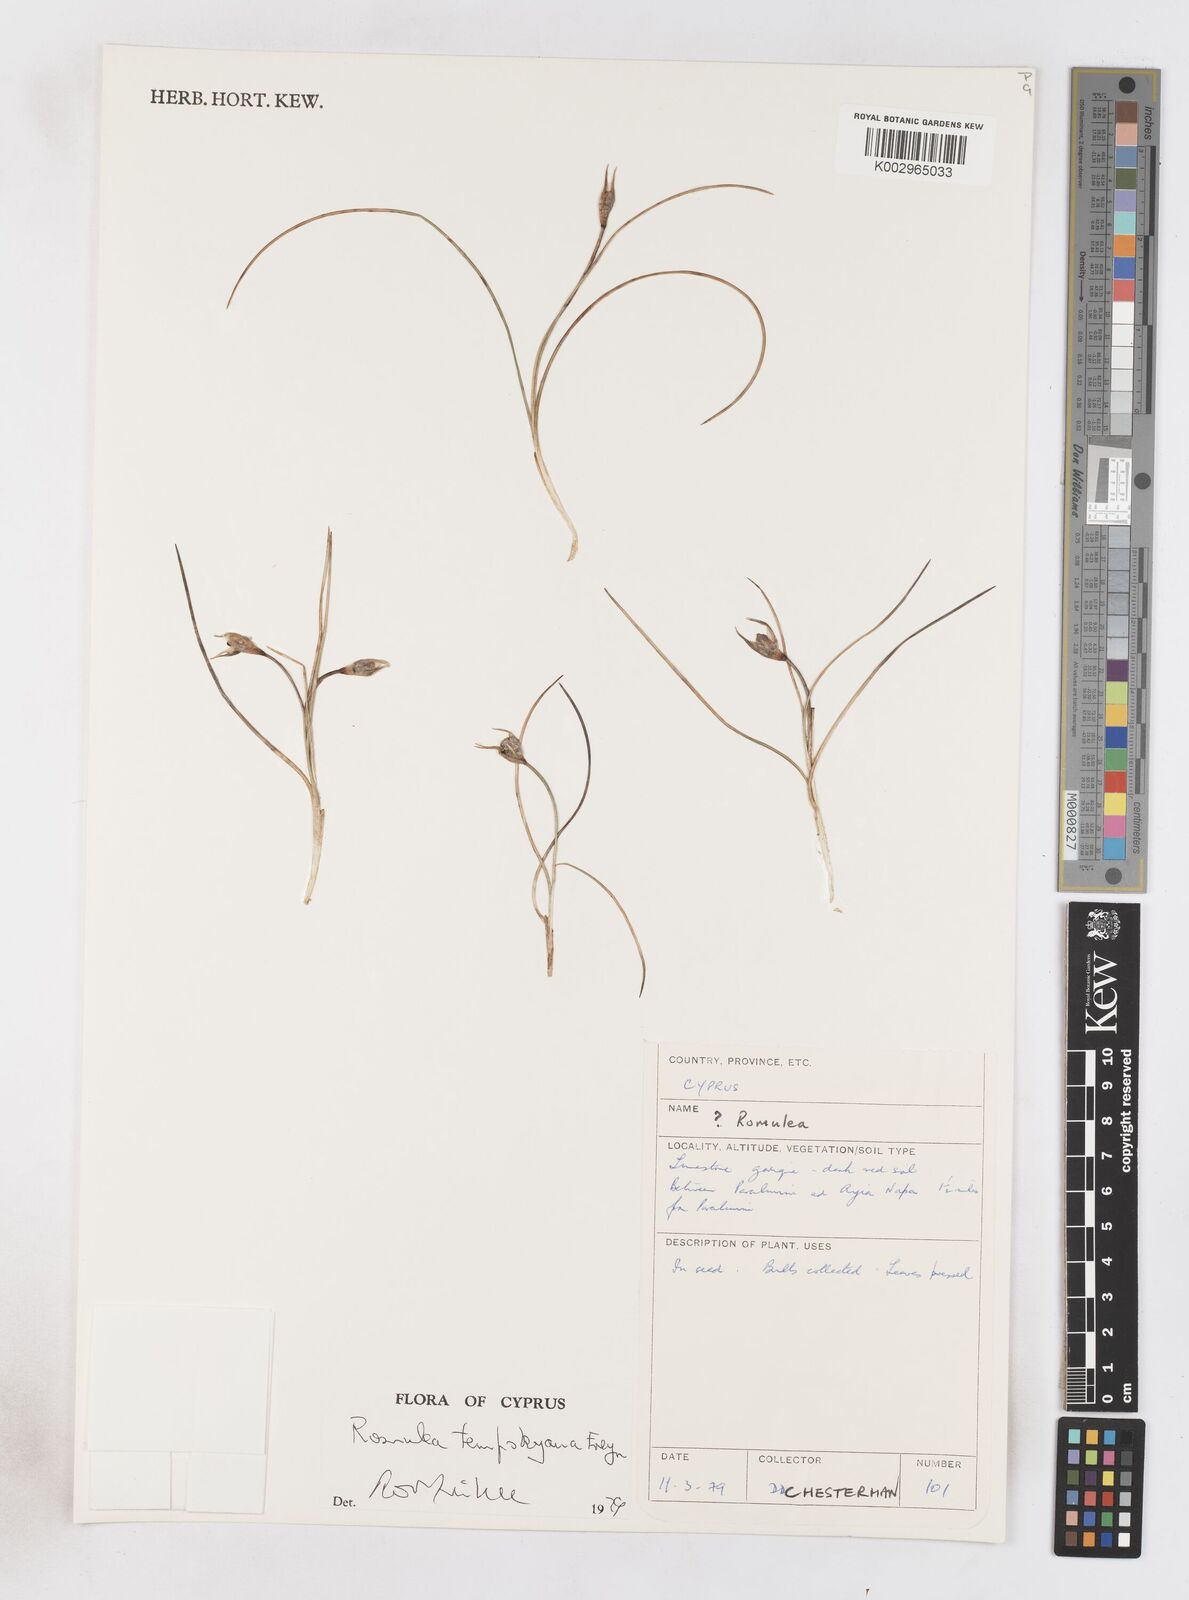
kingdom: Plantae
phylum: Tracheophyta
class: Liliopsida
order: Asparagales
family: Iridaceae
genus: Romulea
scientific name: Romulea tempskyana
